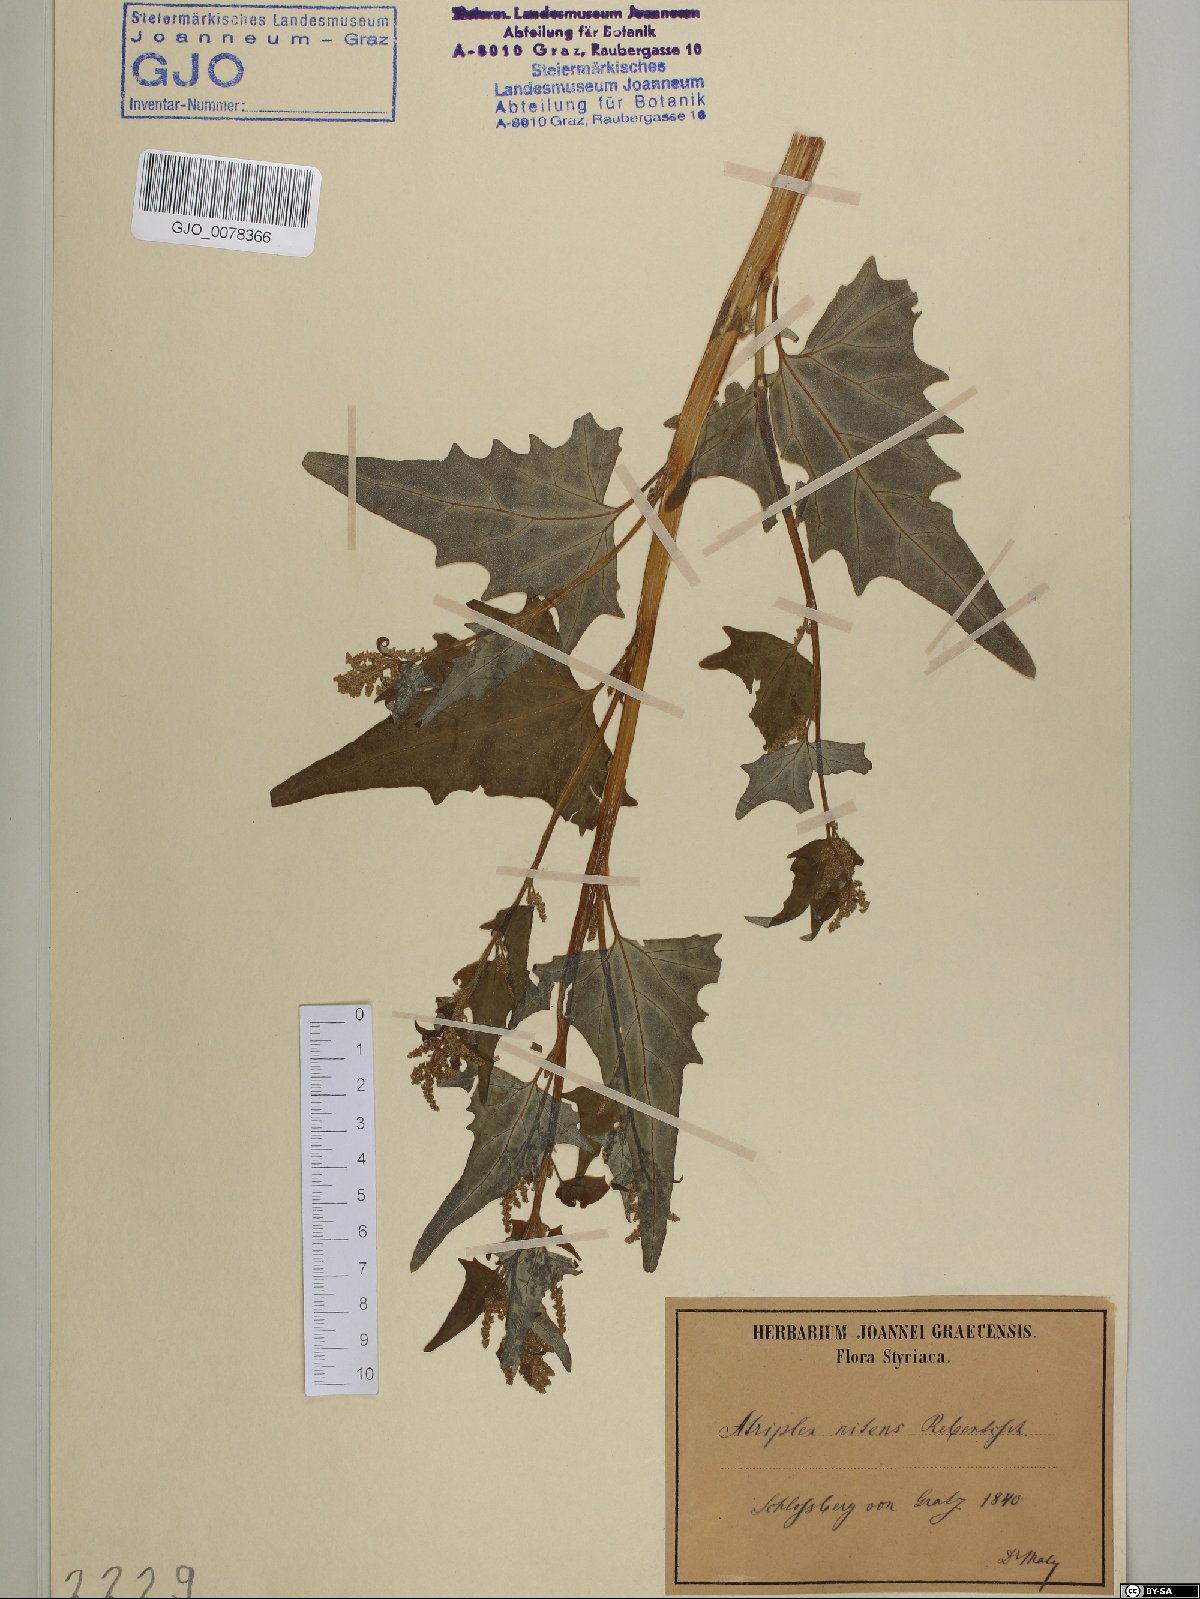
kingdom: Plantae
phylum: Tracheophyta
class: Magnoliopsida
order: Caryophyllales
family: Amaranthaceae
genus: Atriplex
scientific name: Atriplex sagittata
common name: Purple orache
